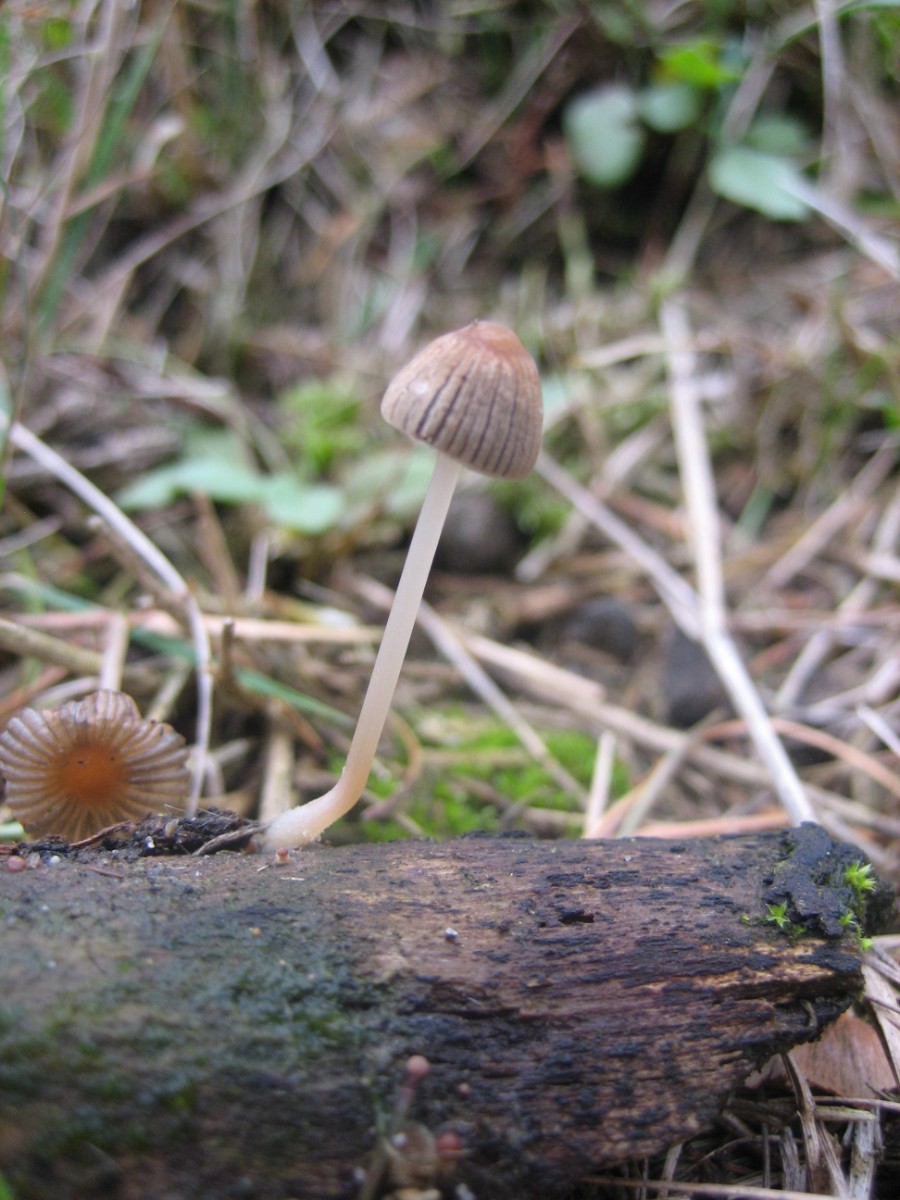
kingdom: Fungi
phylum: Basidiomycota
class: Agaricomycetes
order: Agaricales
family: Psathyrellaceae
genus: Parasola
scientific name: Parasola
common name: hjulhat
